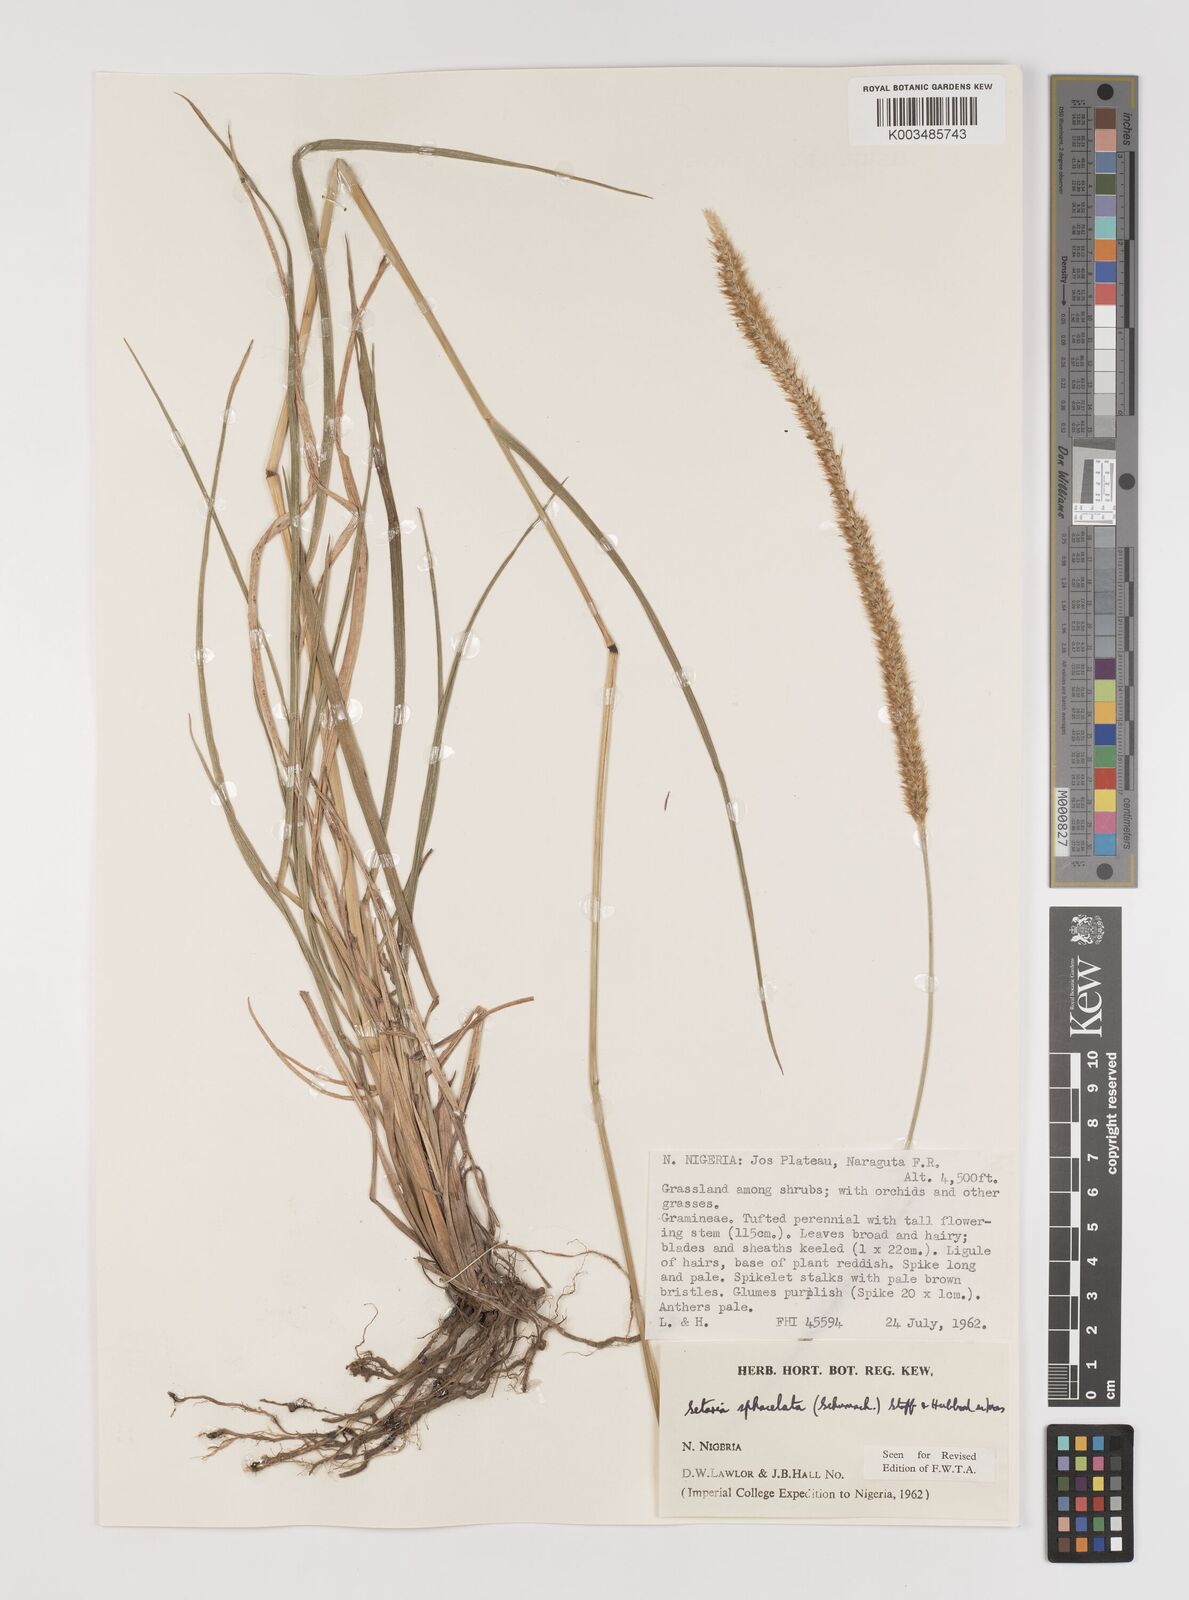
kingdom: Plantae
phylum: Tracheophyta
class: Liliopsida
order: Poales
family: Poaceae
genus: Setaria
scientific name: Setaria sphacelata
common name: African bristlegrass
